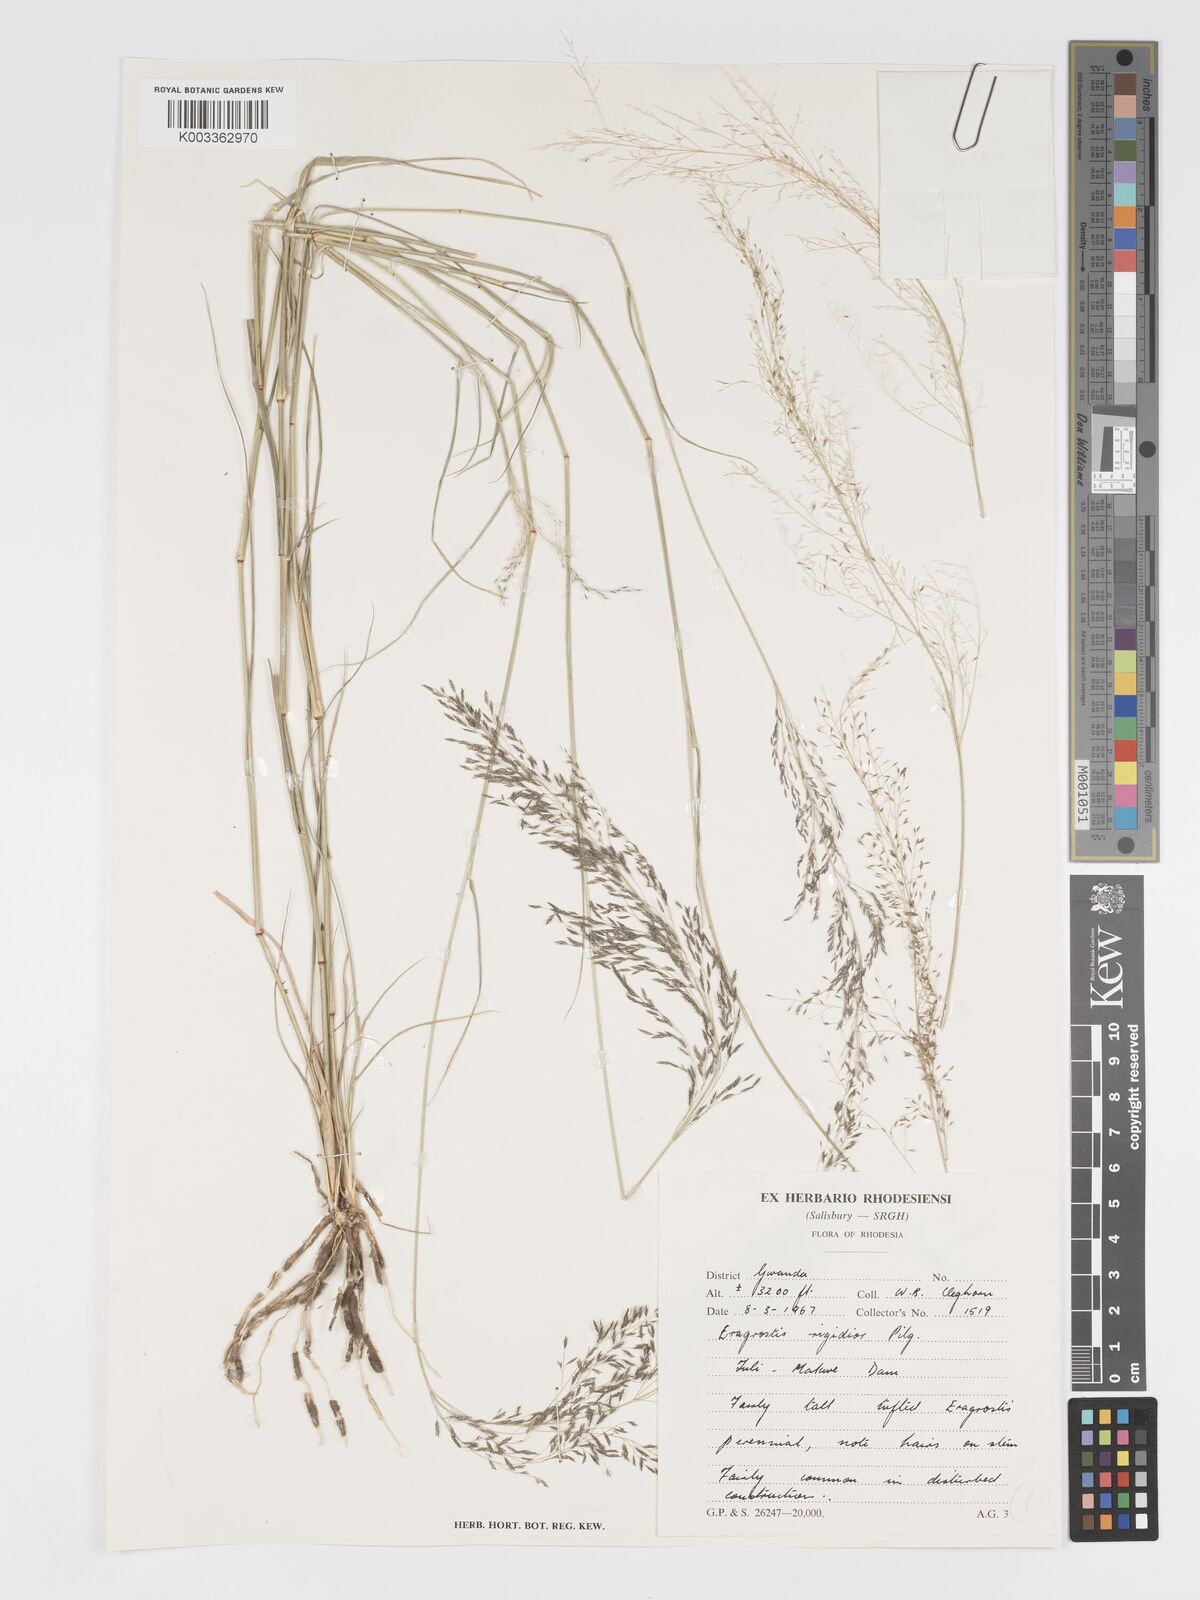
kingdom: Plantae
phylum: Tracheophyta
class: Liliopsida
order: Poales
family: Poaceae
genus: Eragrostis
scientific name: Eragrostis cylindriflora
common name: Cylinderflower lovegrass
